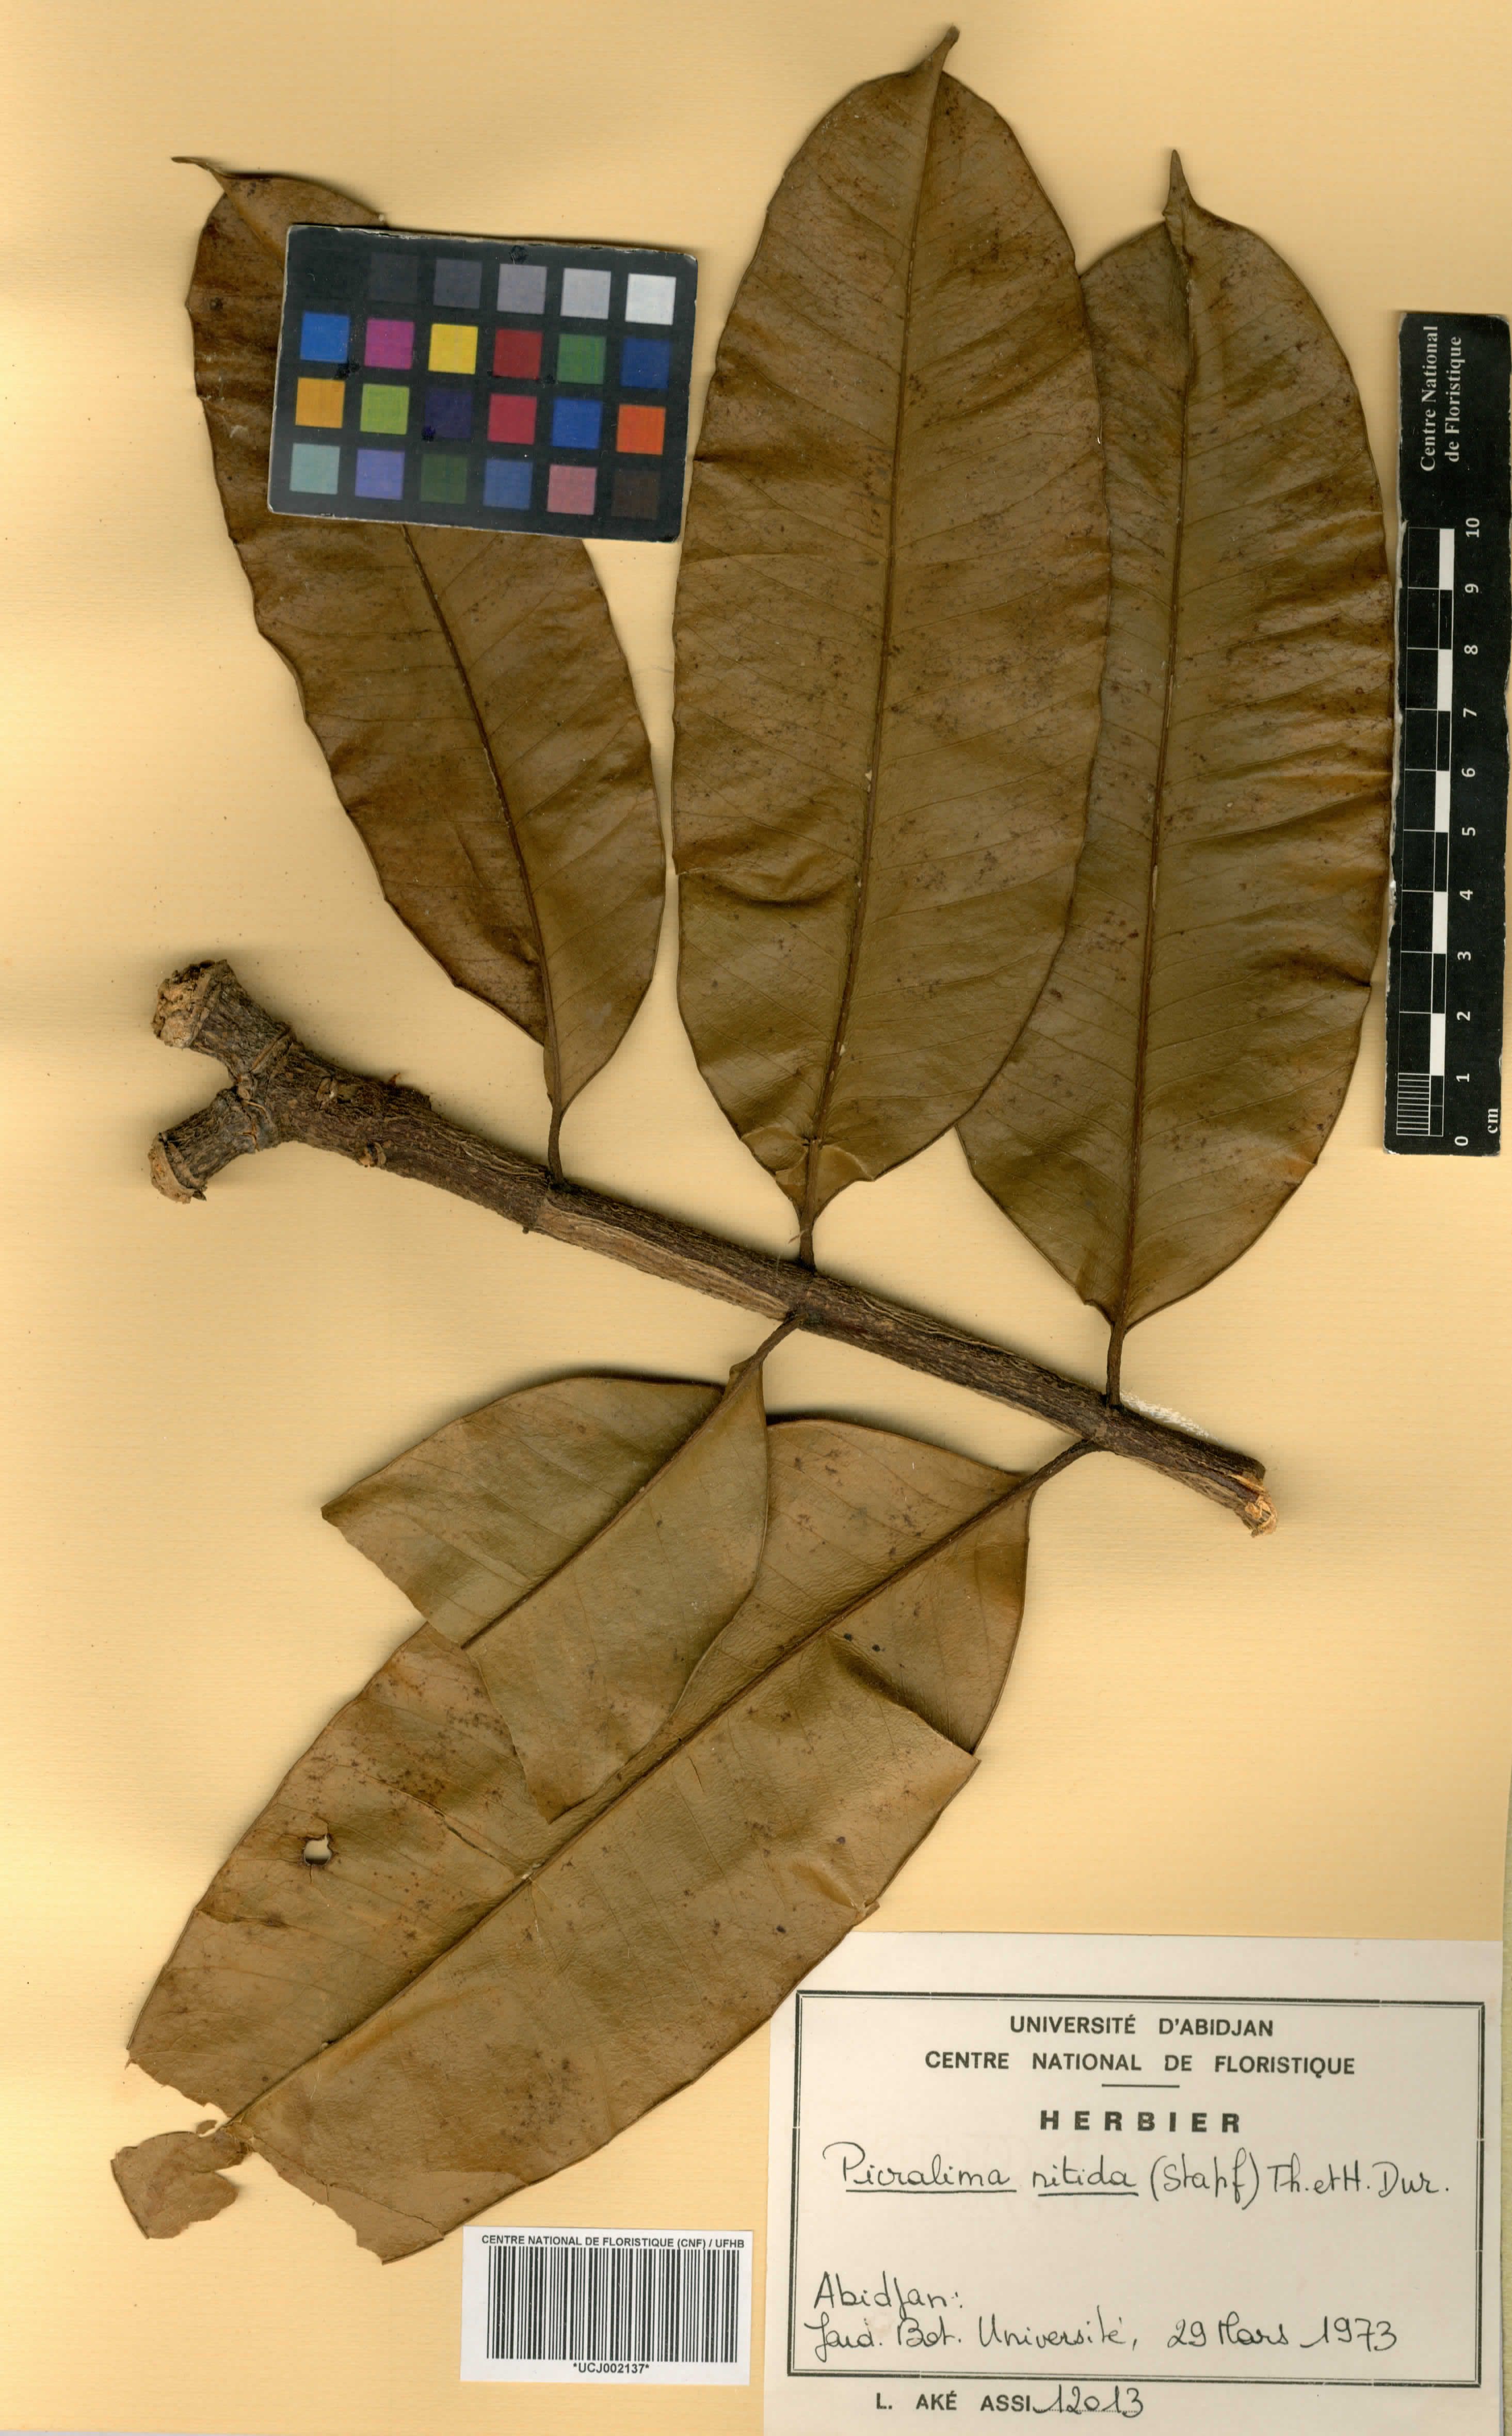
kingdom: Plantae
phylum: Tracheophyta
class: Magnoliopsida
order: Gentianales
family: Apocynaceae
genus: Picralima
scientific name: Picralima nitida
